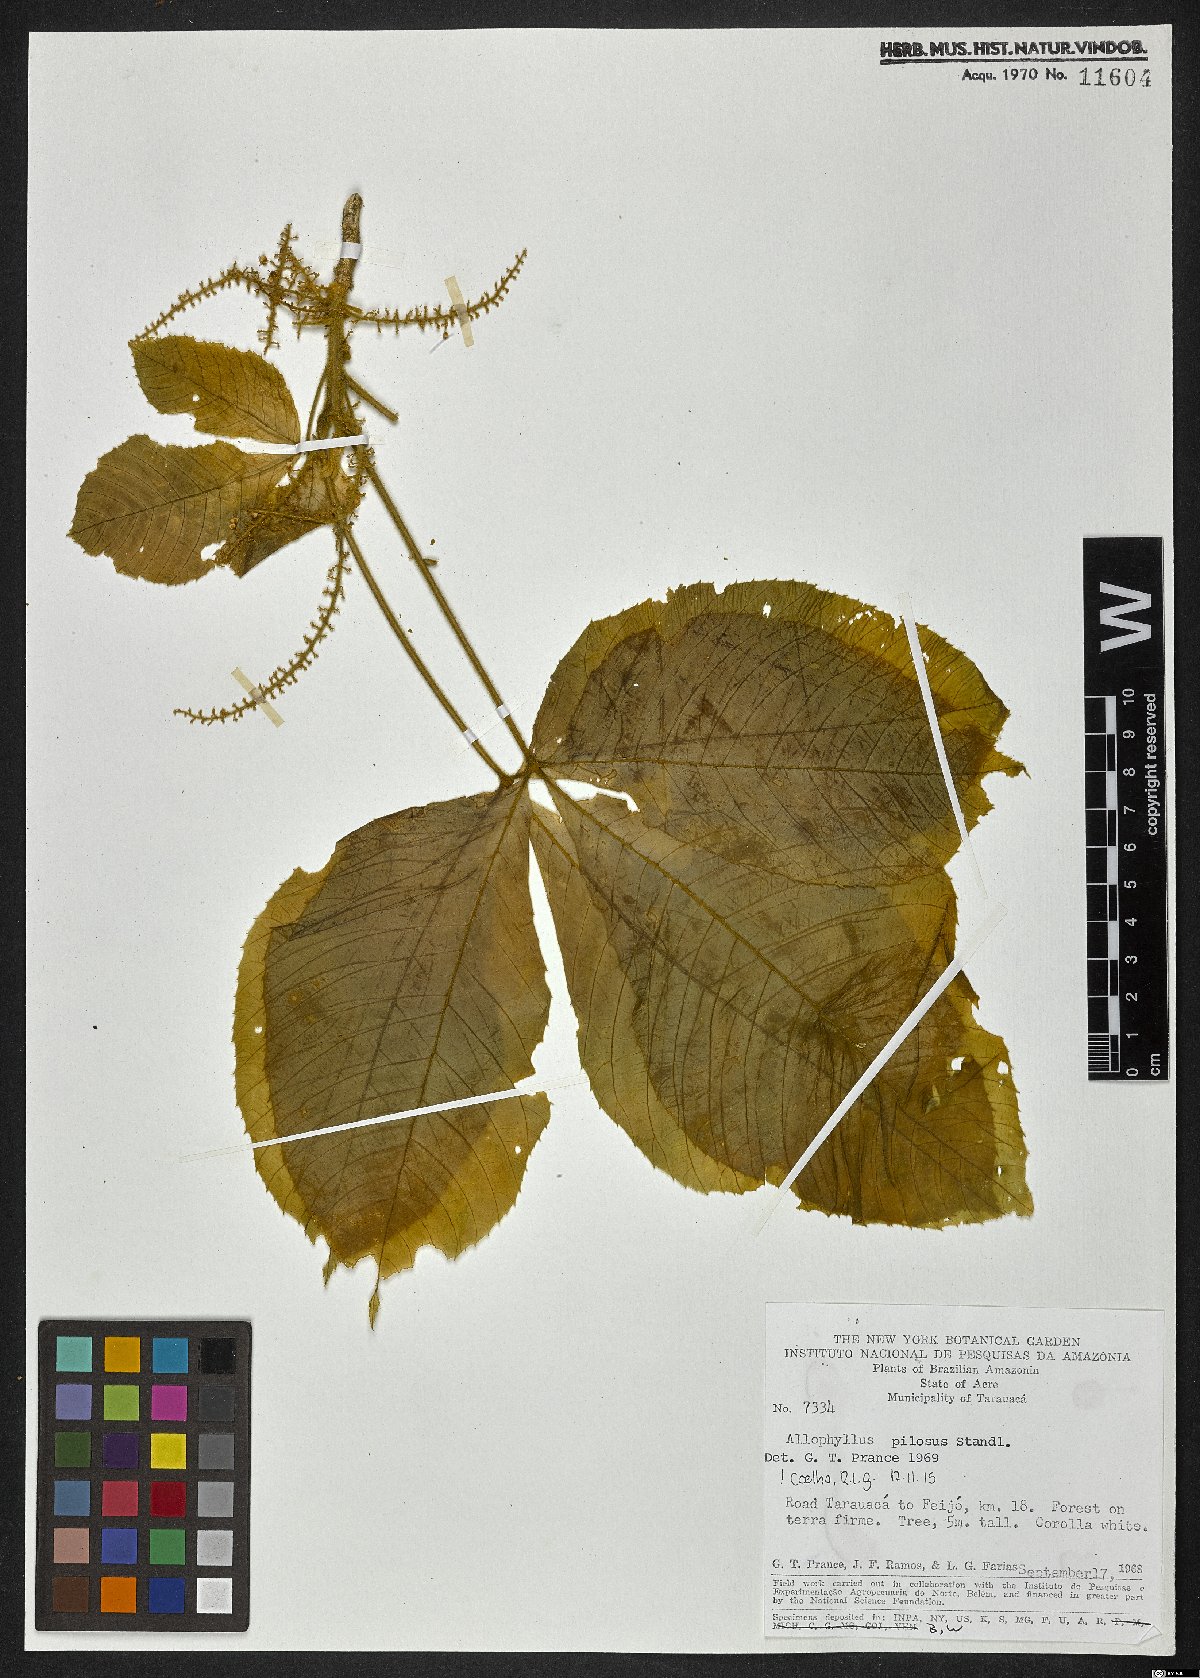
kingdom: Plantae
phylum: Tracheophyta
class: Magnoliopsida
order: Sapindales
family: Sapindaceae
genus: Allophylus
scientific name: Allophylus pilosus
